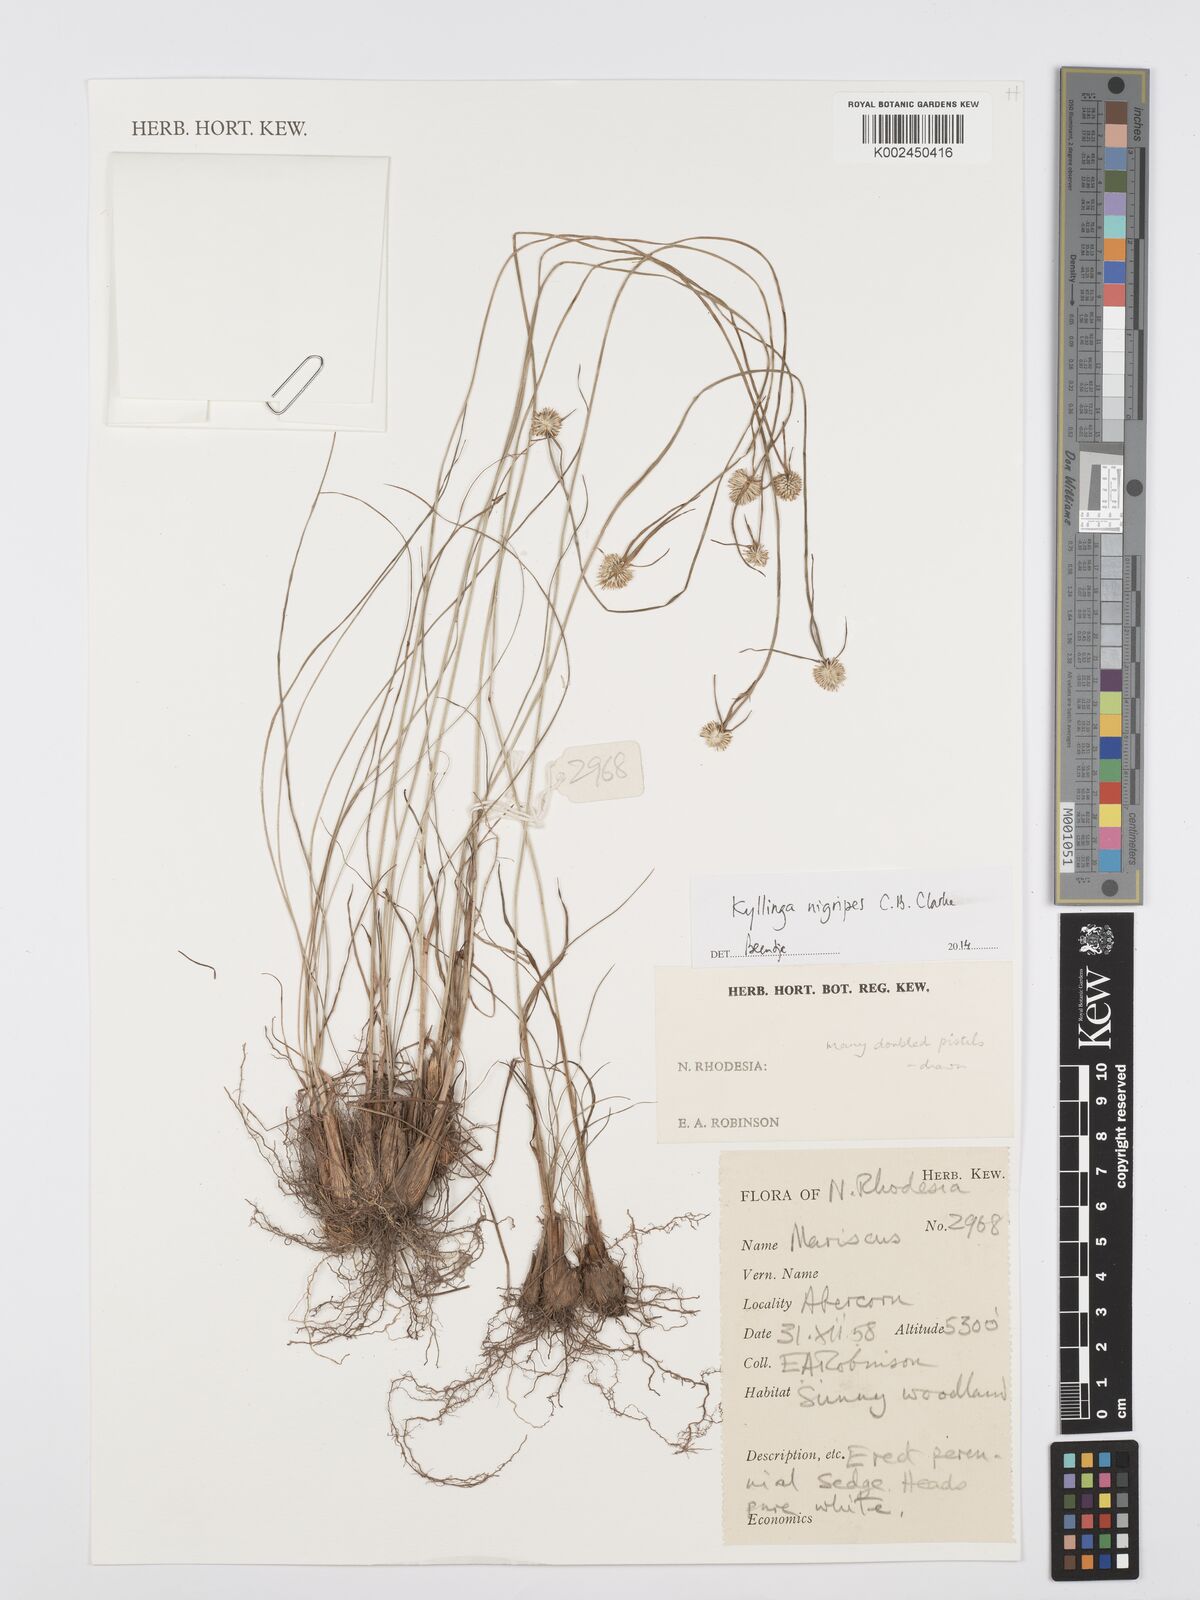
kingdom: Plantae
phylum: Tracheophyta
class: Liliopsida
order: Poales
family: Cyperaceae
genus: Cyperus
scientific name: Cyperus nigripes
